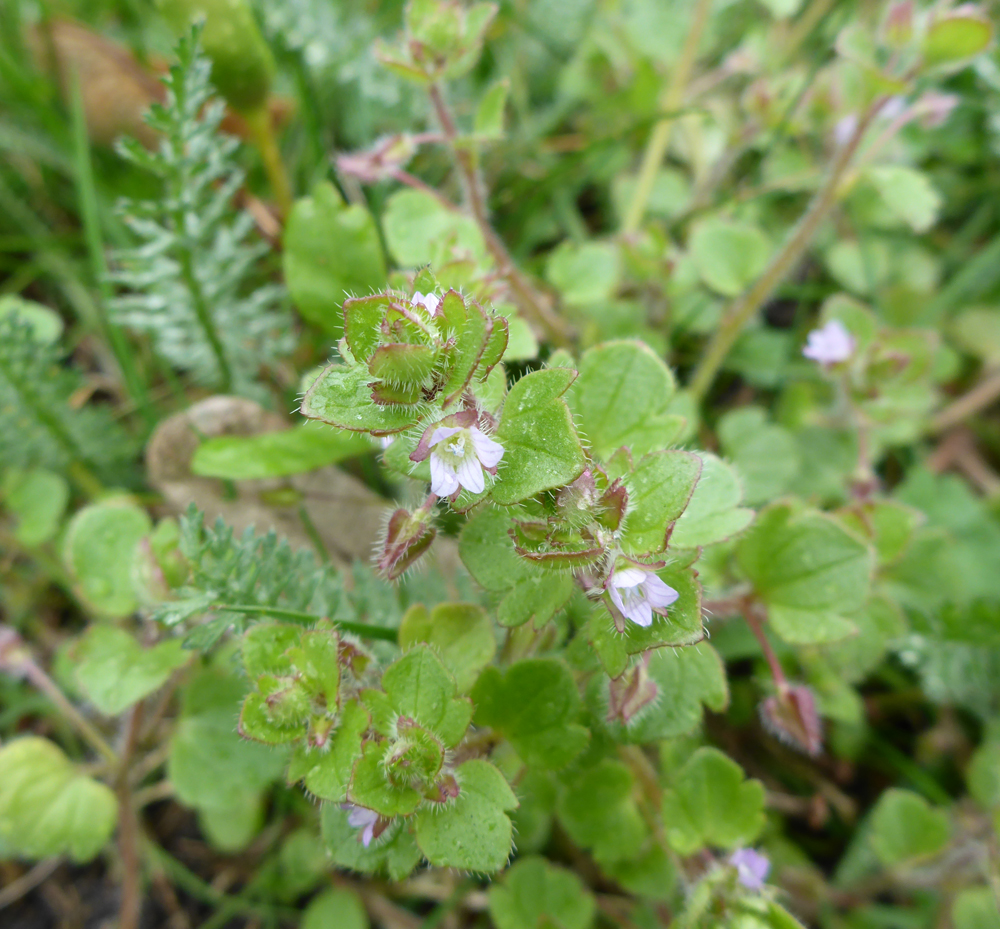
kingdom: Plantae
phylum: Tracheophyta
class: Magnoliopsida
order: Lamiales
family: Plantaginaceae
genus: Veronica
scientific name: Veronica sublobata
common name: False ivy-leaved speedwell
